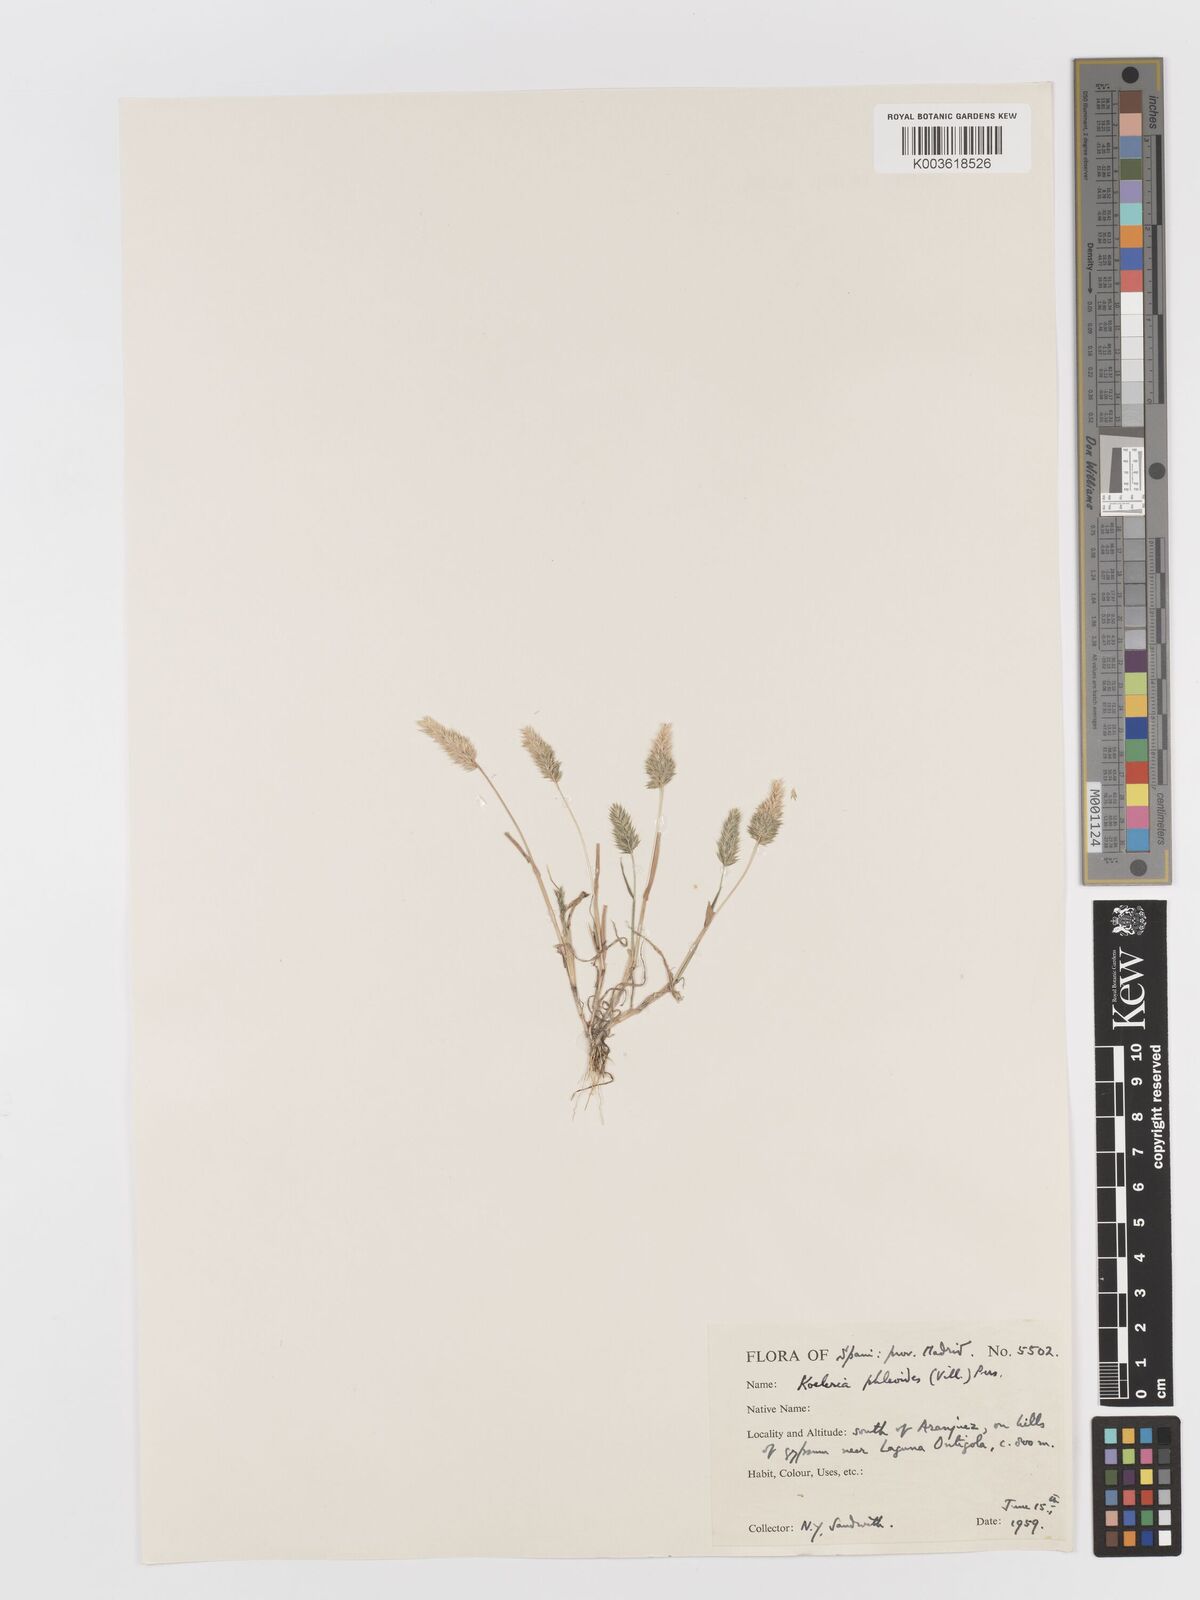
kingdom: Plantae
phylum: Tracheophyta
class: Liliopsida
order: Poales
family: Poaceae
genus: Rostraria
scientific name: Rostraria cristata
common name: Mediterranean hair-grass
